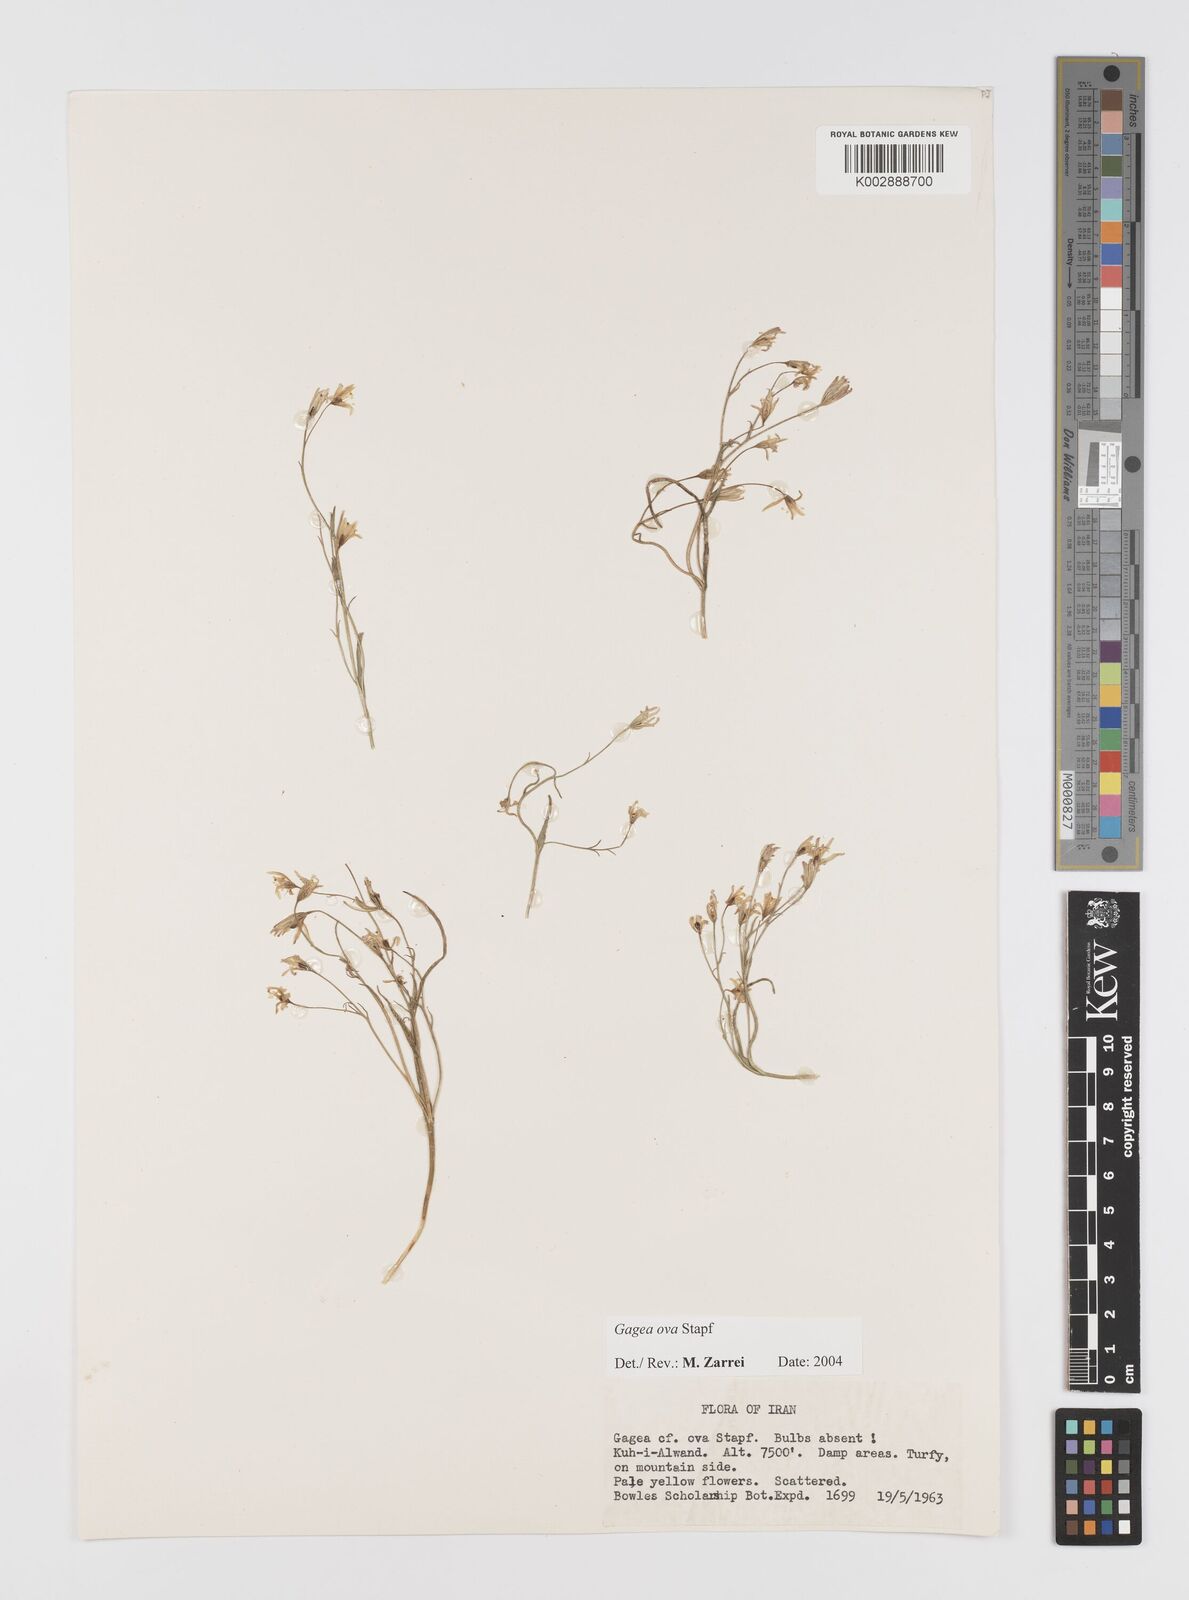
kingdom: Plantae
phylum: Tracheophyta
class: Liliopsida
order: Liliales
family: Liliaceae
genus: Gagea
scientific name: Gagea kunawurensis
